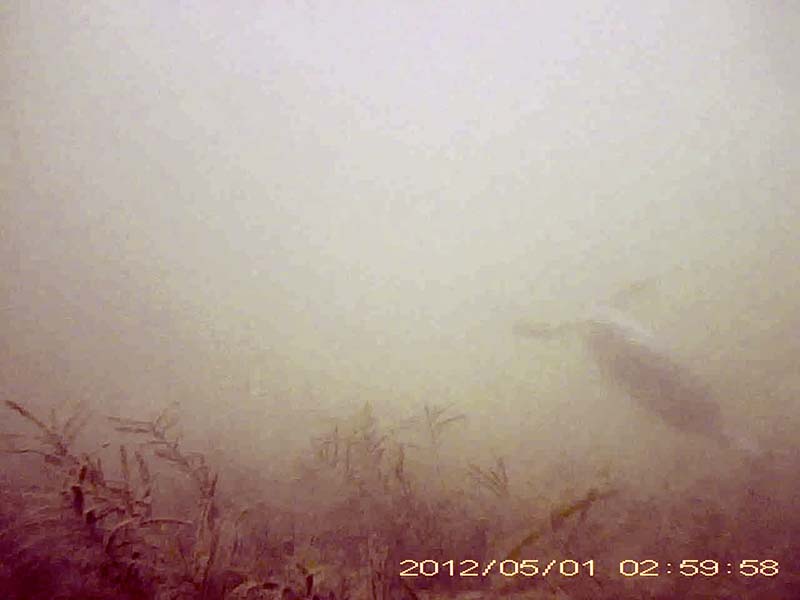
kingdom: Animalia
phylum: Chordata
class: Aves
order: Gruiformes
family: Rallidae
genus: Fulica
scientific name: Fulica atra
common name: オオバン
